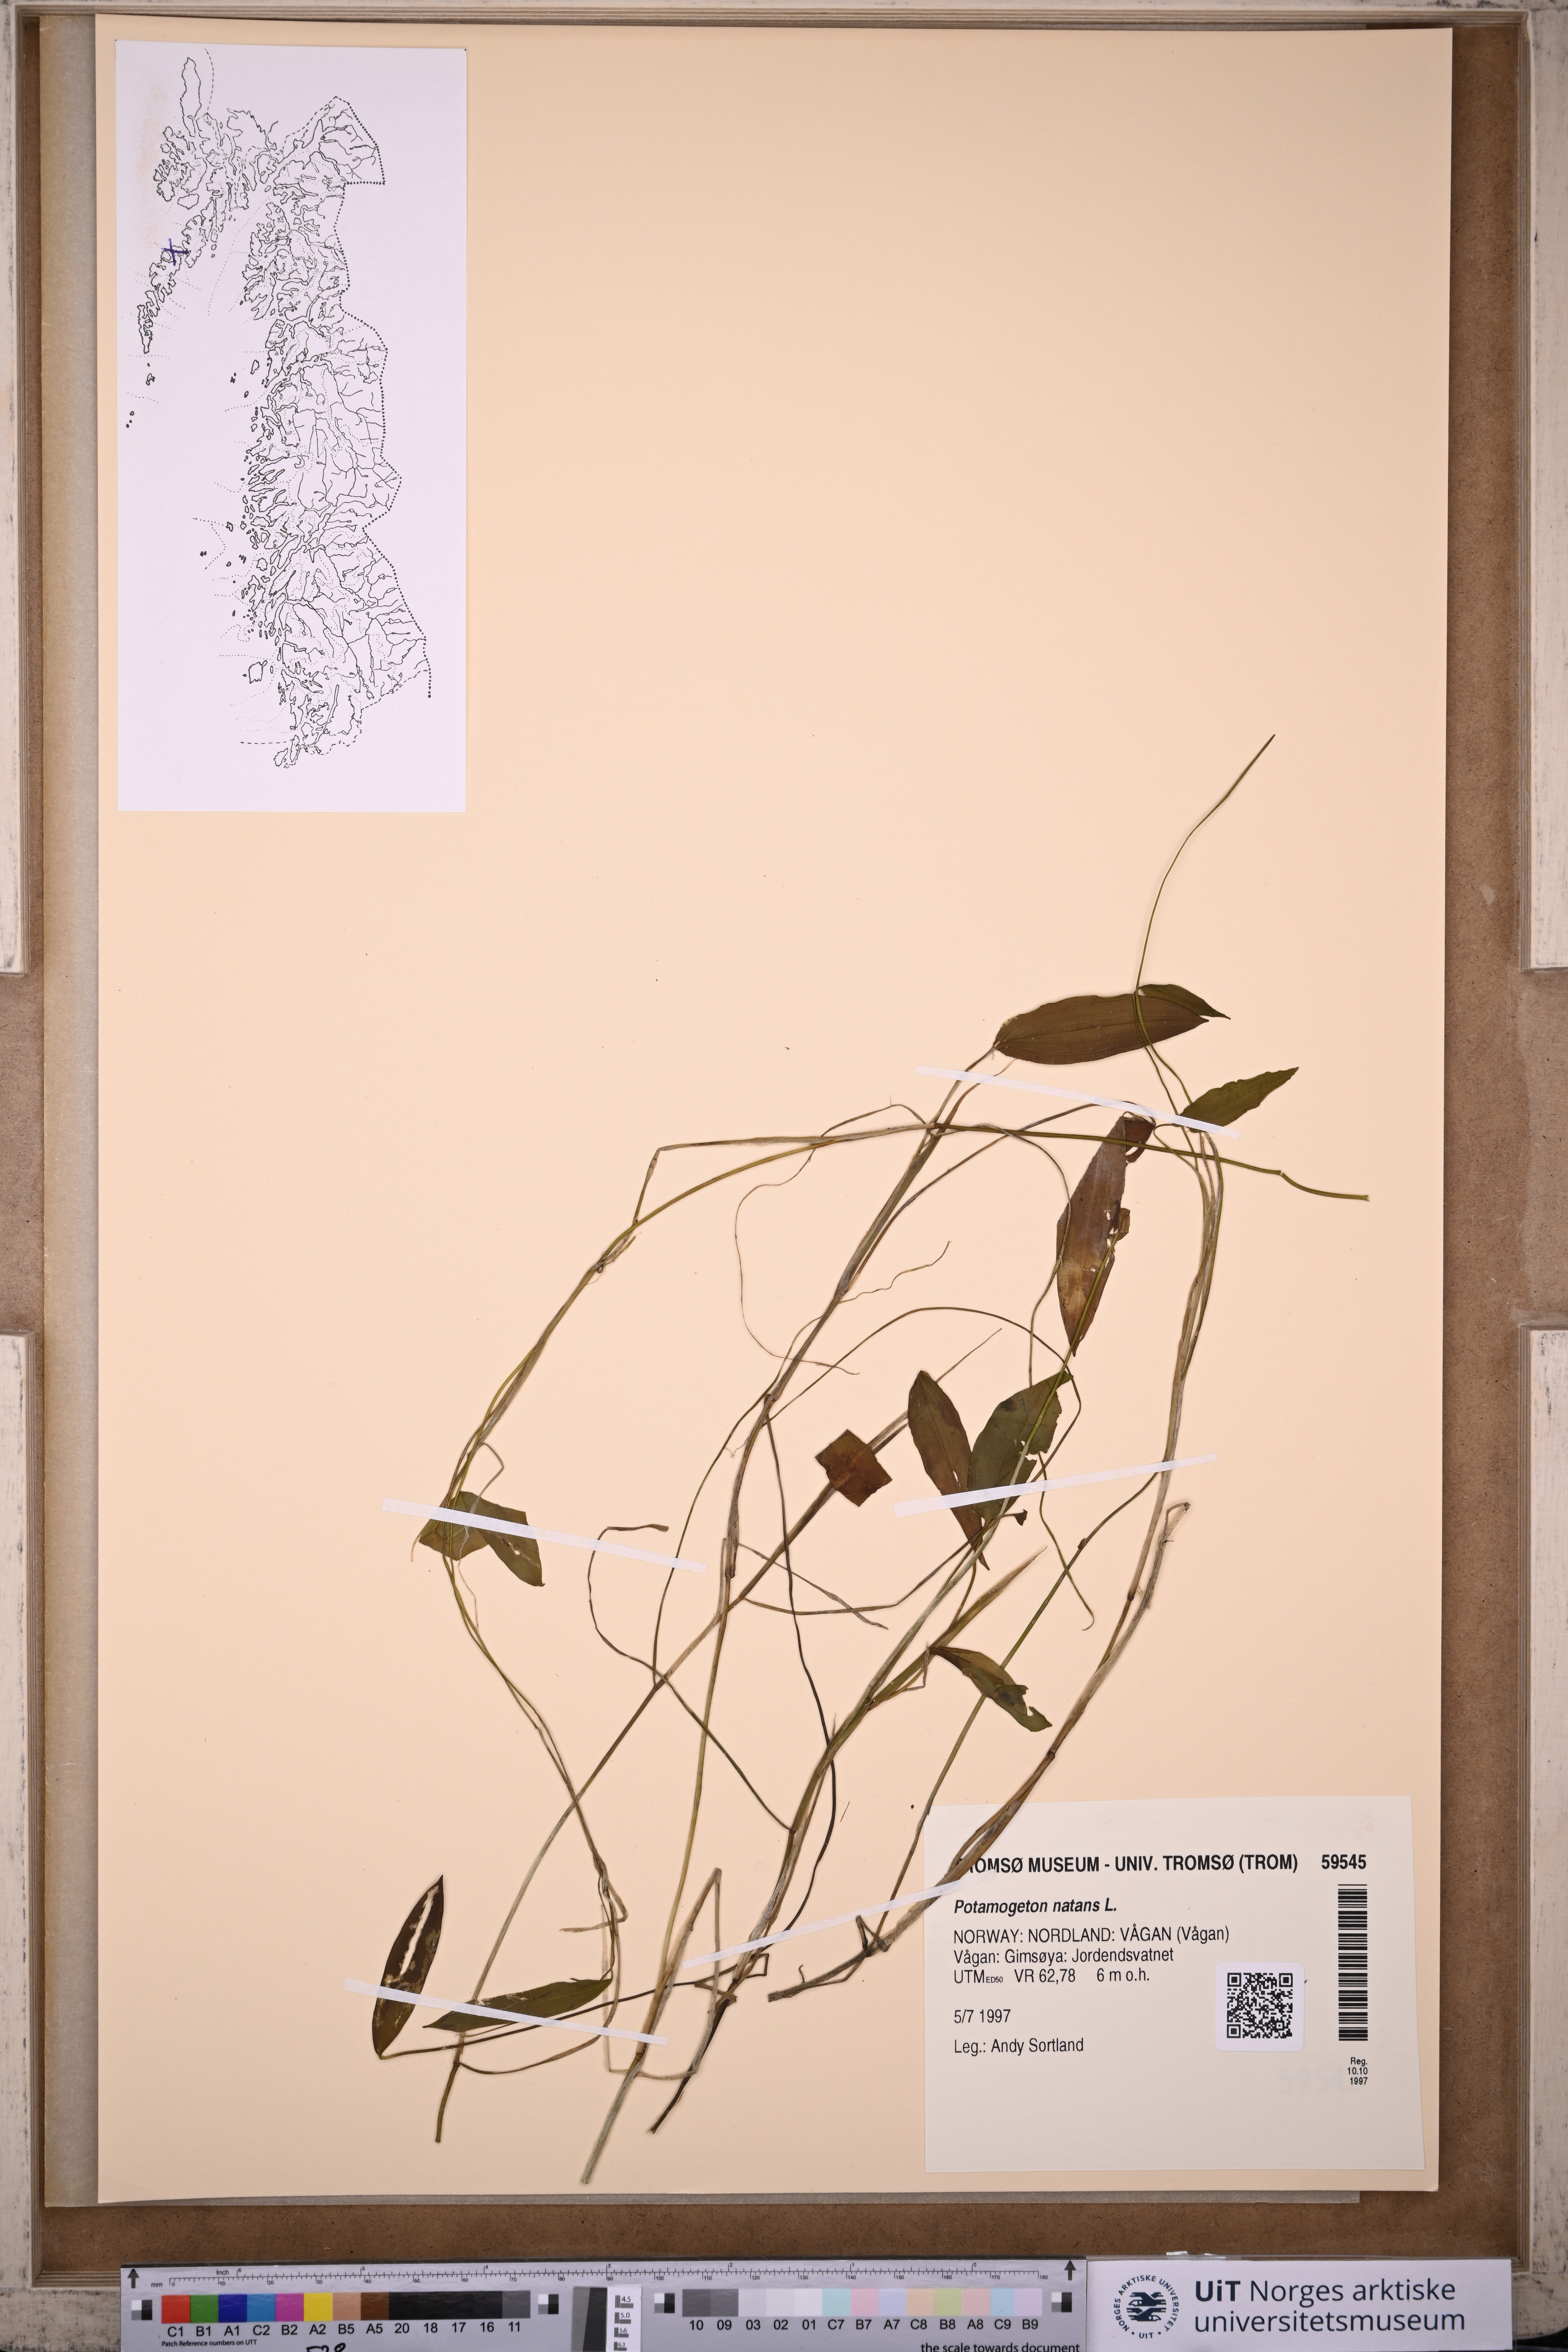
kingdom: Plantae
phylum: Tracheophyta
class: Liliopsida
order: Alismatales
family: Potamogetonaceae
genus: Potamogeton
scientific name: Potamogeton natans
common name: Broad-leaved pondweed
